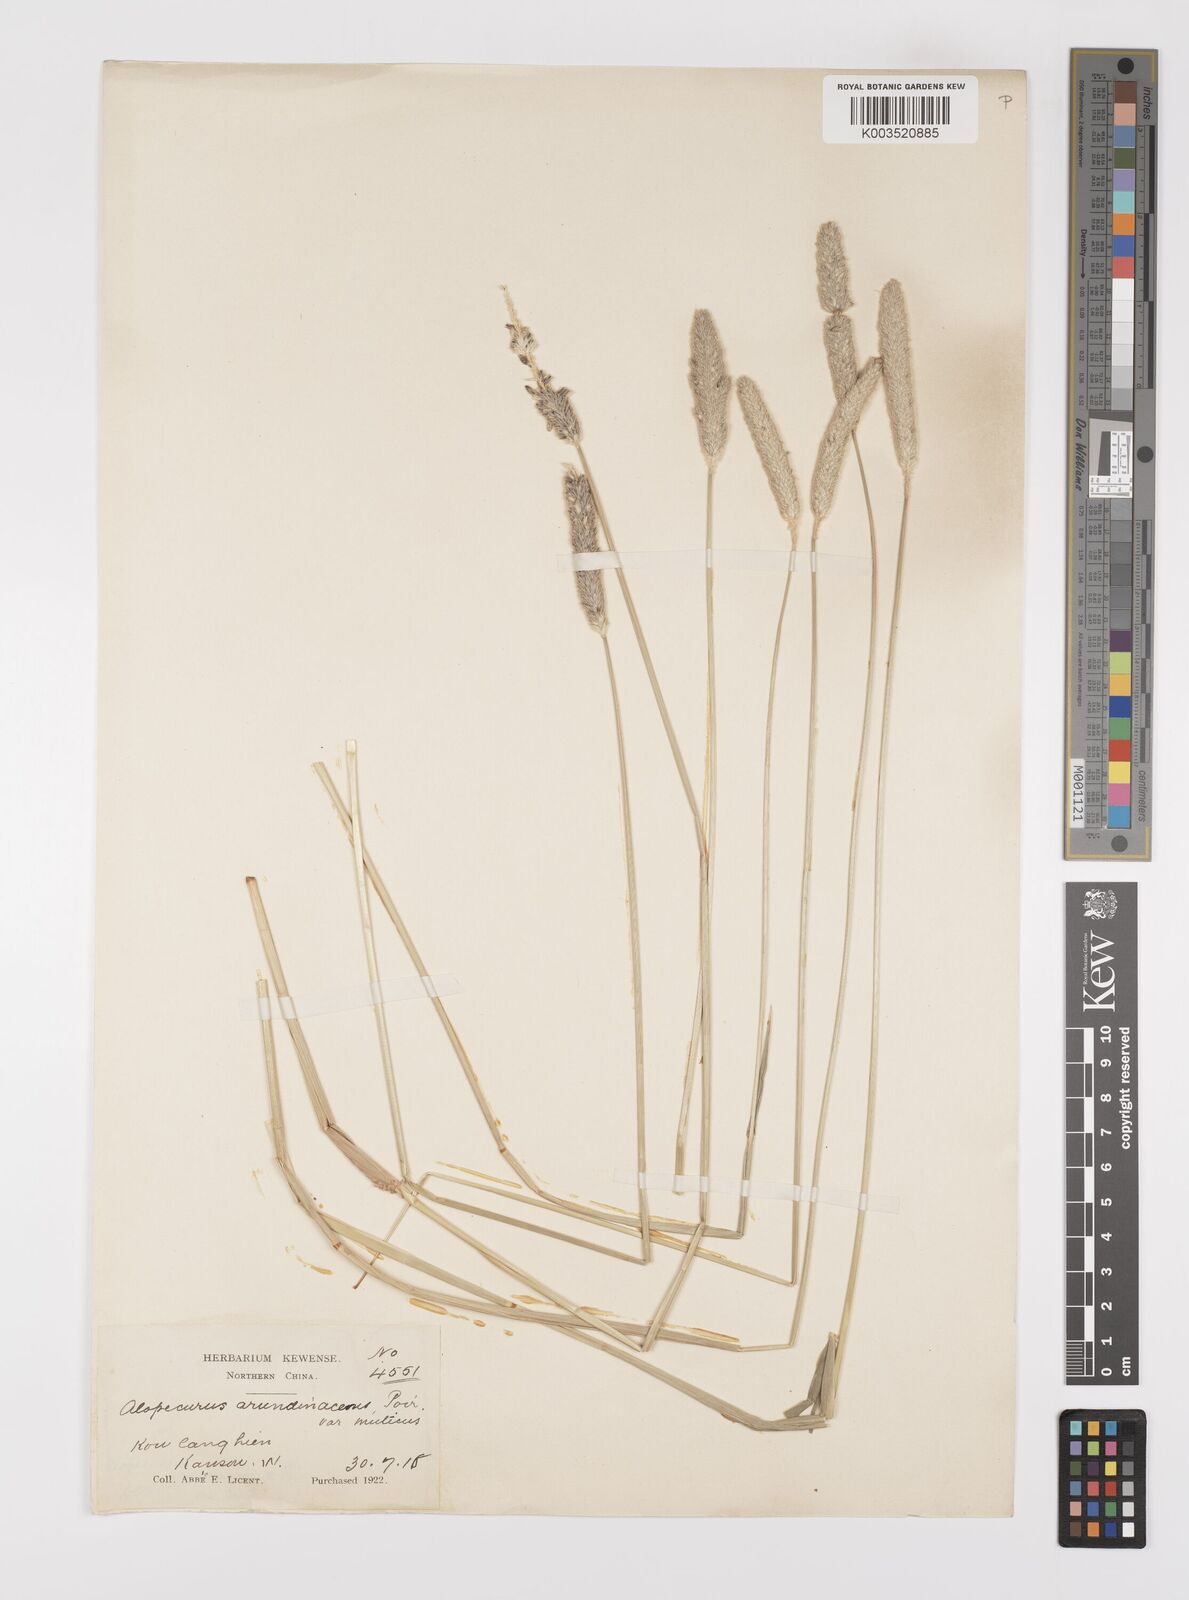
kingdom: Plantae
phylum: Tracheophyta
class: Liliopsida
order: Poales
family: Poaceae
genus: Alopecurus
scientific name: Alopecurus arundinaceus
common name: Creeping meadow foxtail
